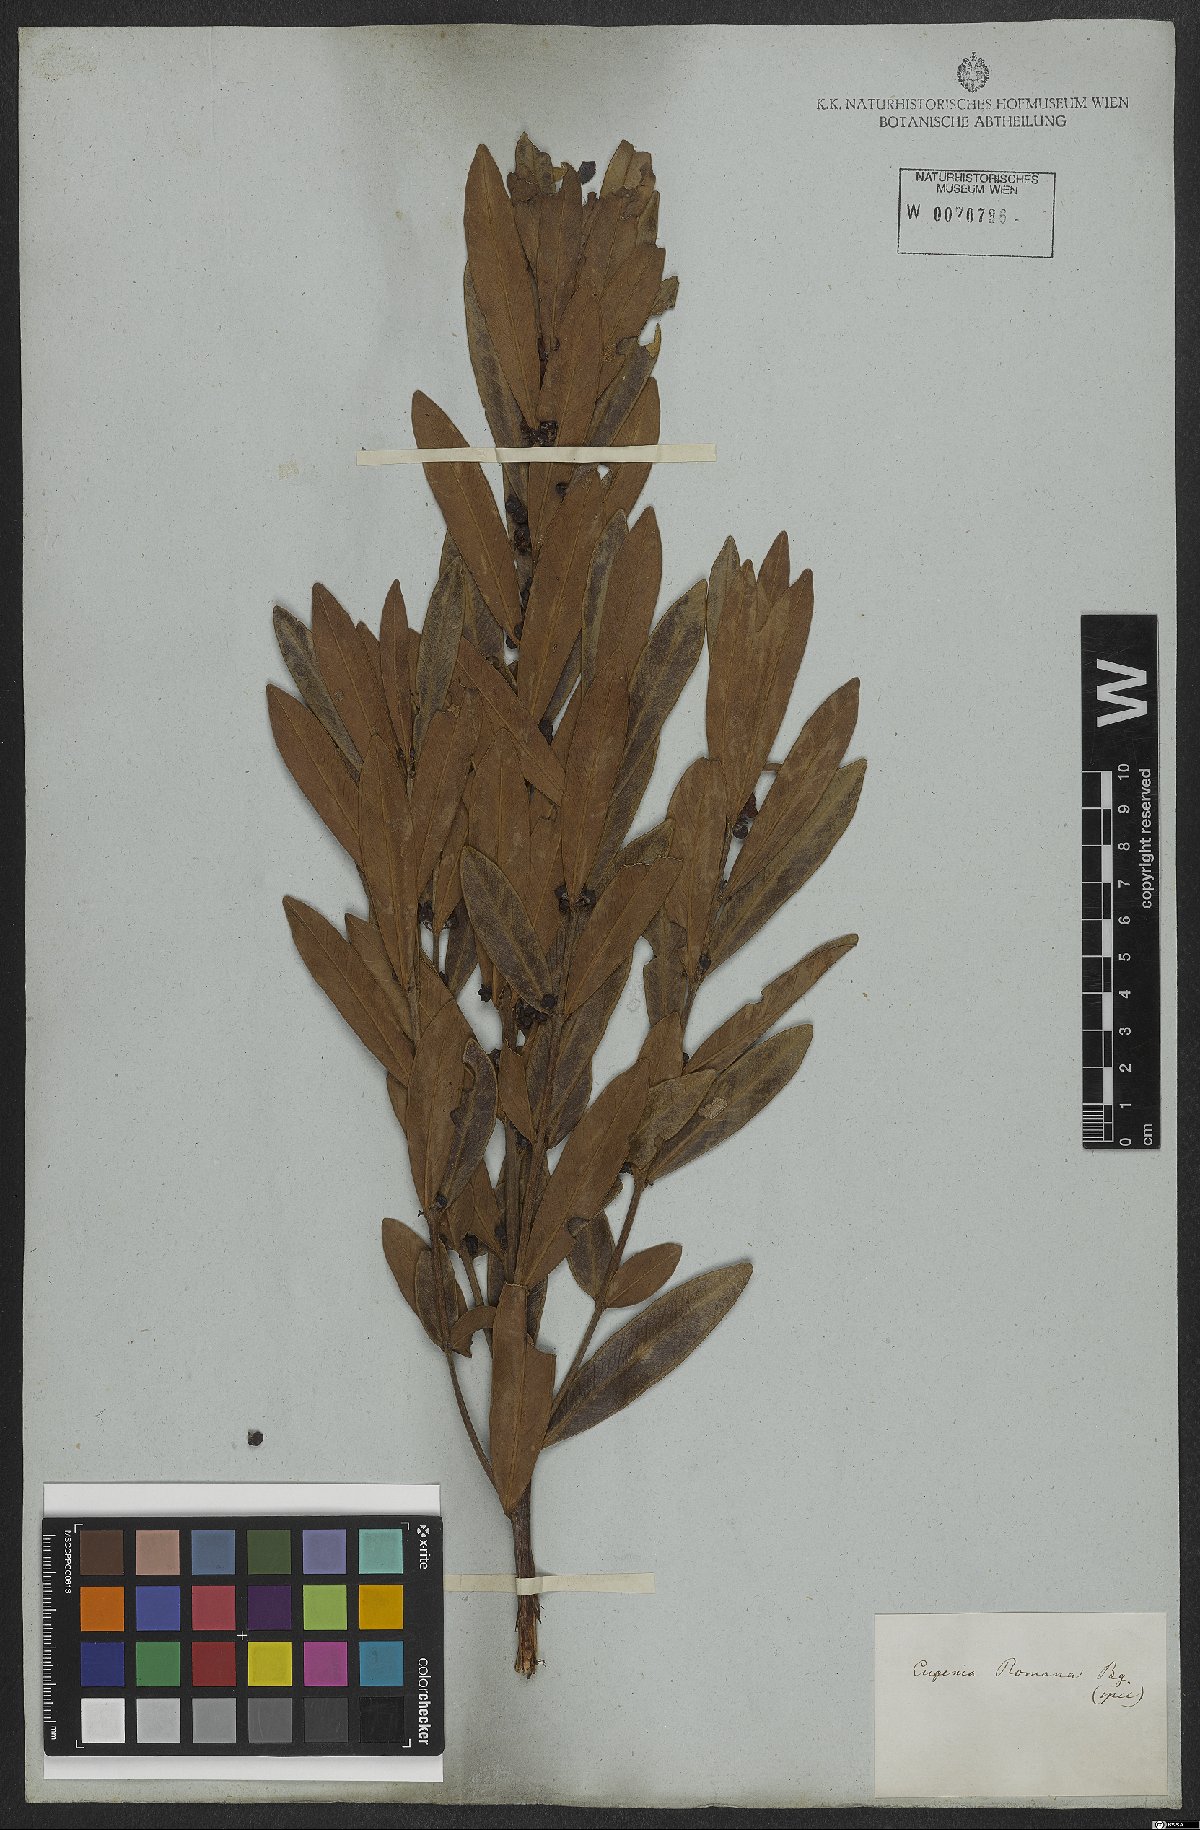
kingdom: Plantae
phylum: Tracheophyta
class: Magnoliopsida
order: Myrtales
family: Myrtaceae
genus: Eugenia
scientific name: Eugenia punicifolia
